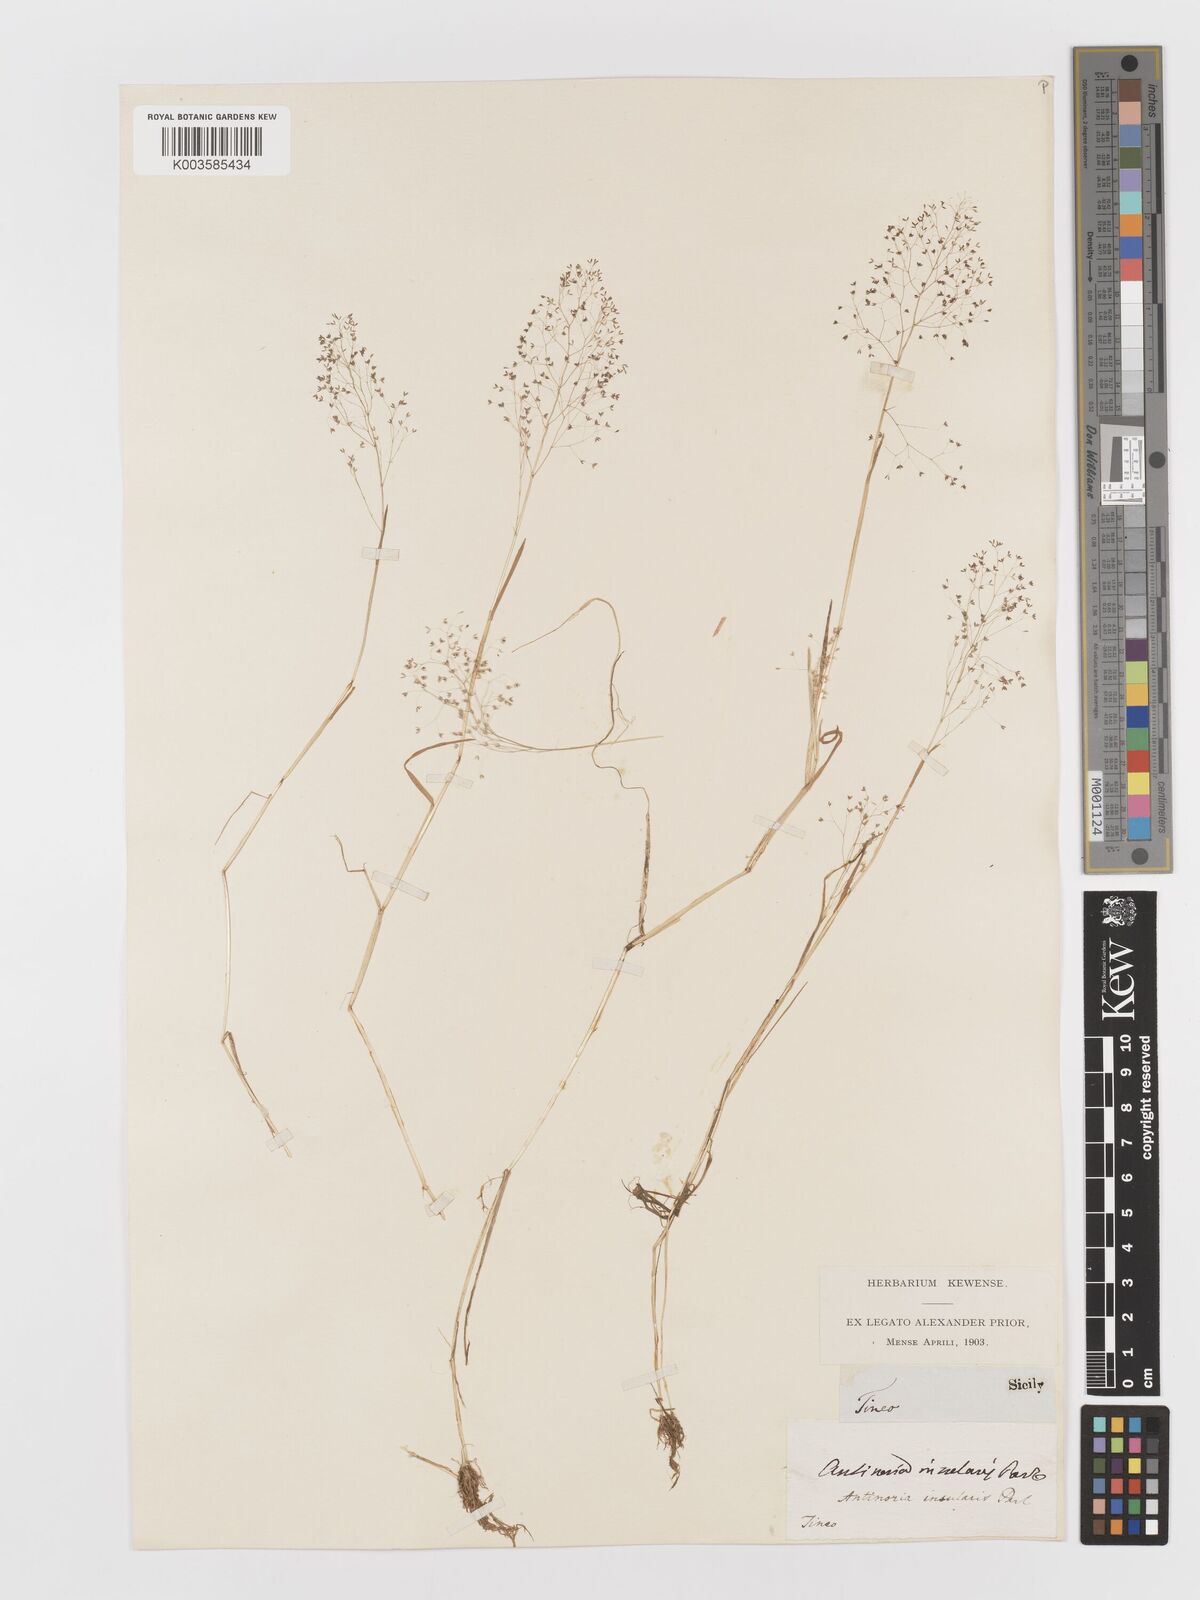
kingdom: Plantae
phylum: Tracheophyta
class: Liliopsida
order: Poales
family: Poaceae
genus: Antinoria
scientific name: Antinoria insularis
